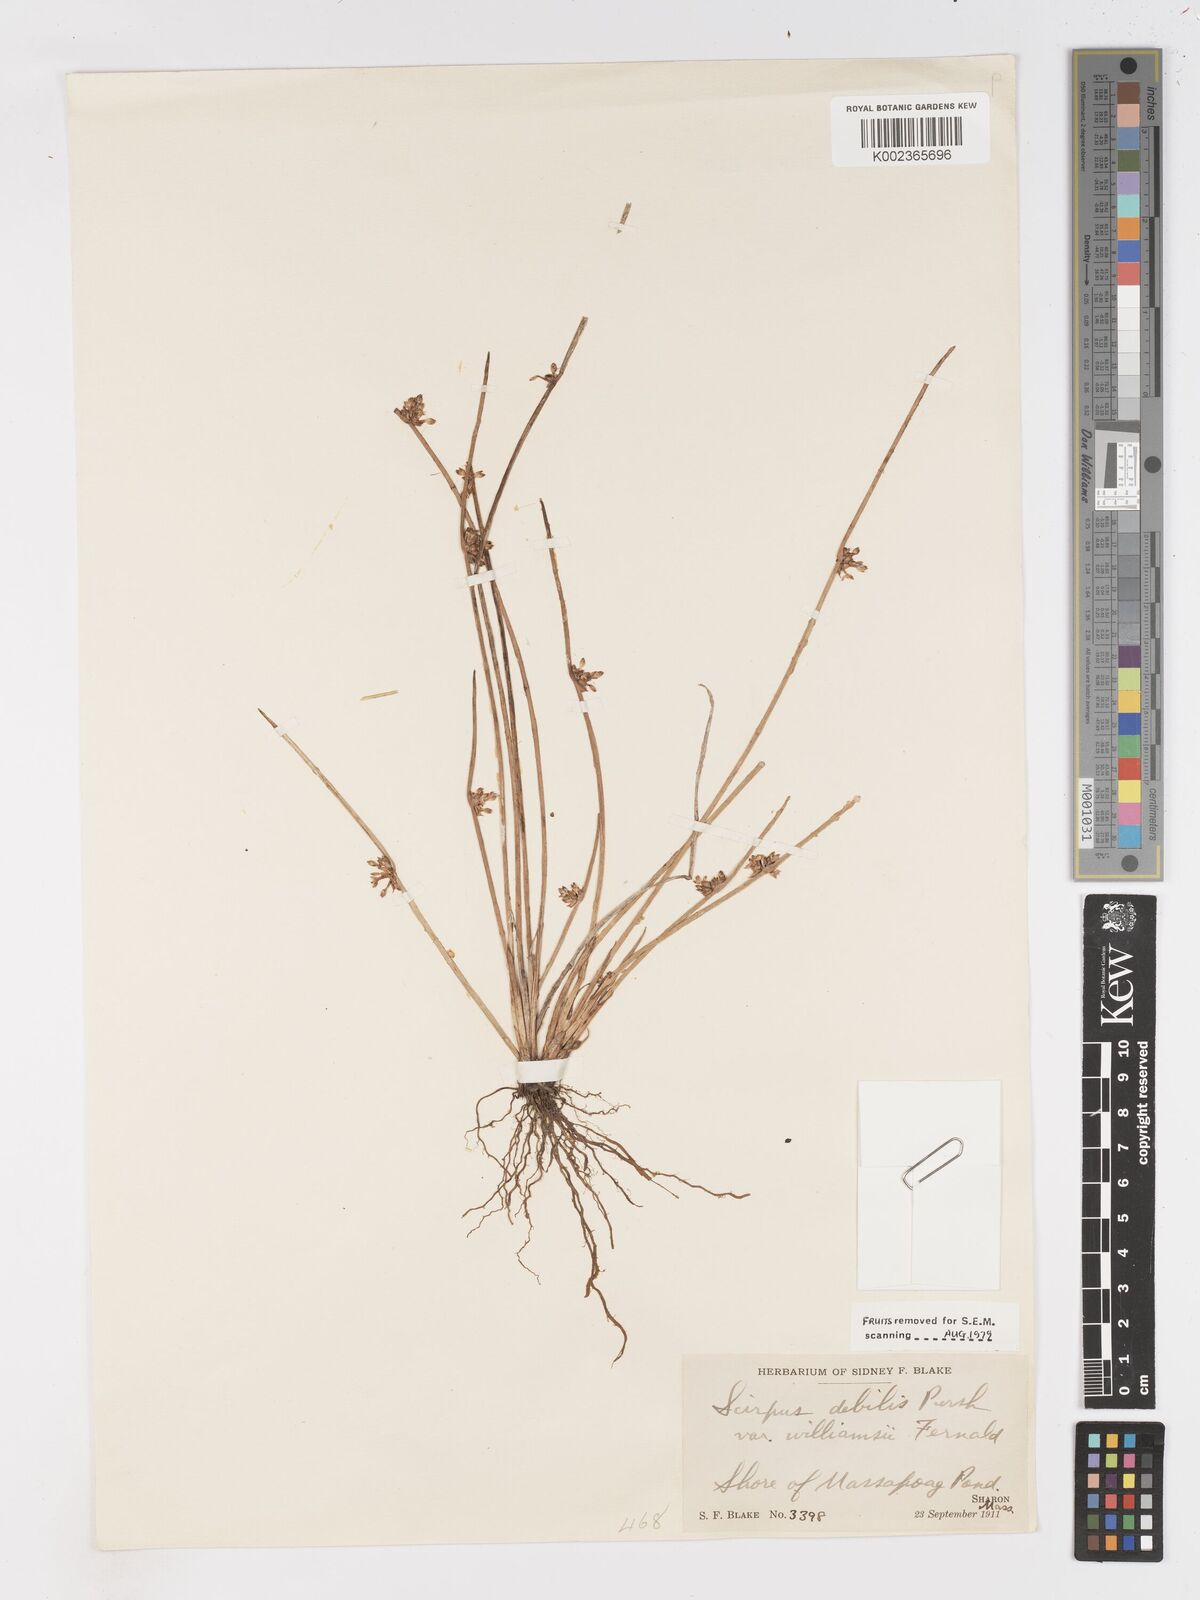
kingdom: Plantae
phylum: Tracheophyta
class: Liliopsida
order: Poales
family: Cyperaceae
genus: Schoenoplectus
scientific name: Schoenoplectus
